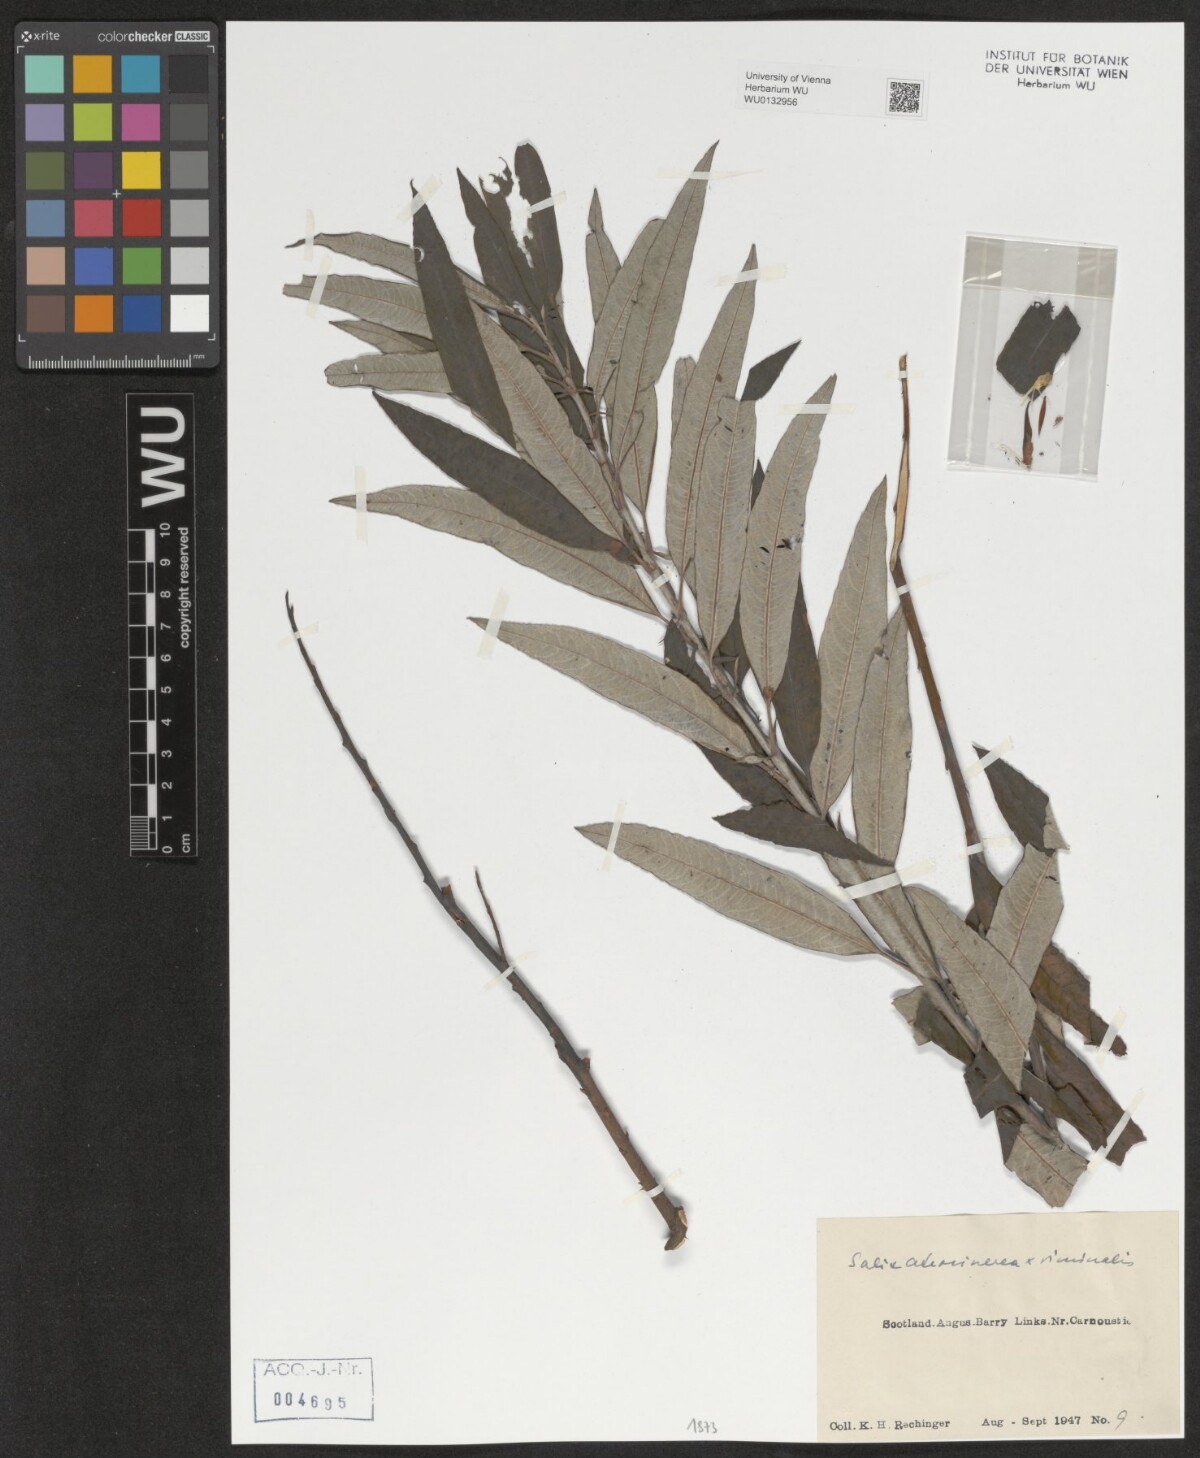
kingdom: Plantae
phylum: Tracheophyta
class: Magnoliopsida
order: Malpighiales
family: Salicaceae
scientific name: Salicaceae
